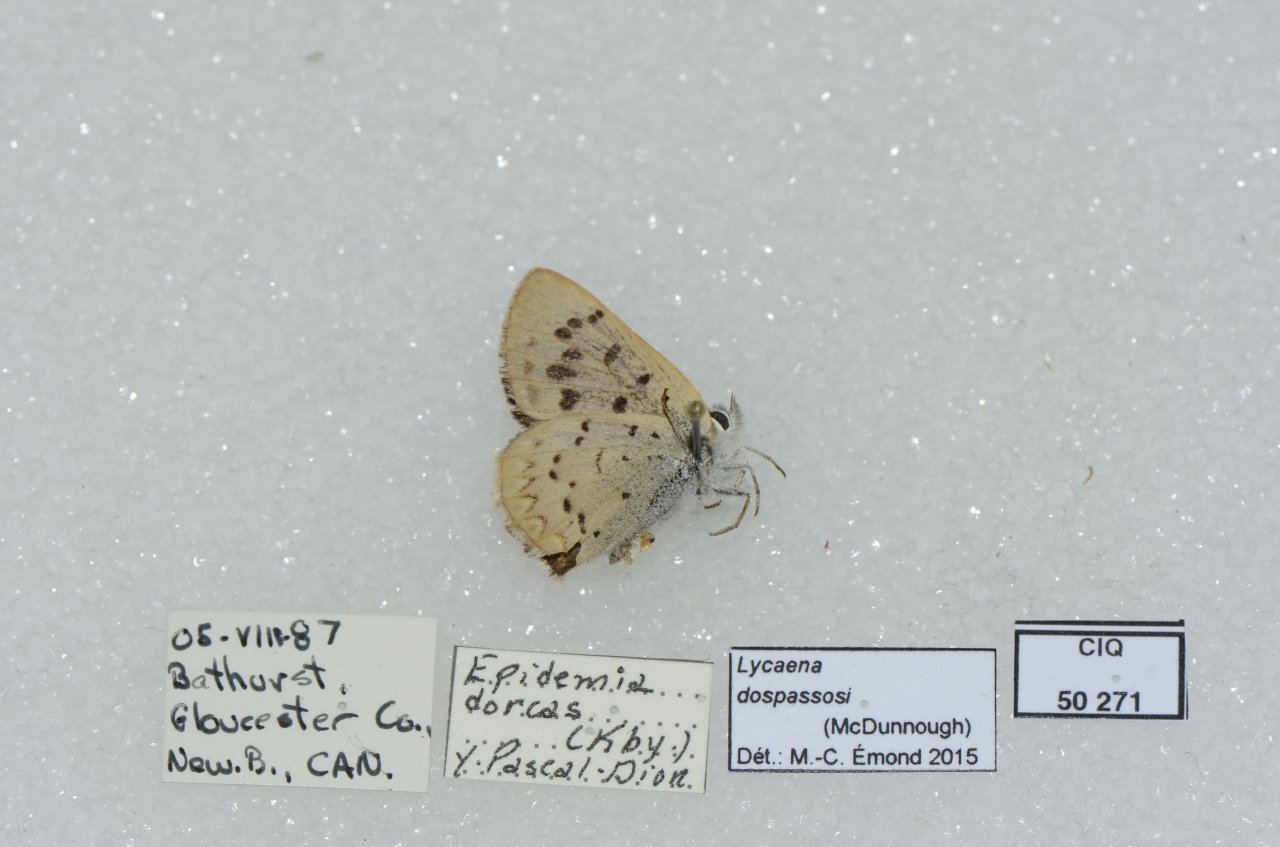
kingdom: Animalia
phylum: Arthropoda
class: Insecta
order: Lepidoptera
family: Lycaenidae
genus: Epidemia
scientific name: Epidemia dorcas
